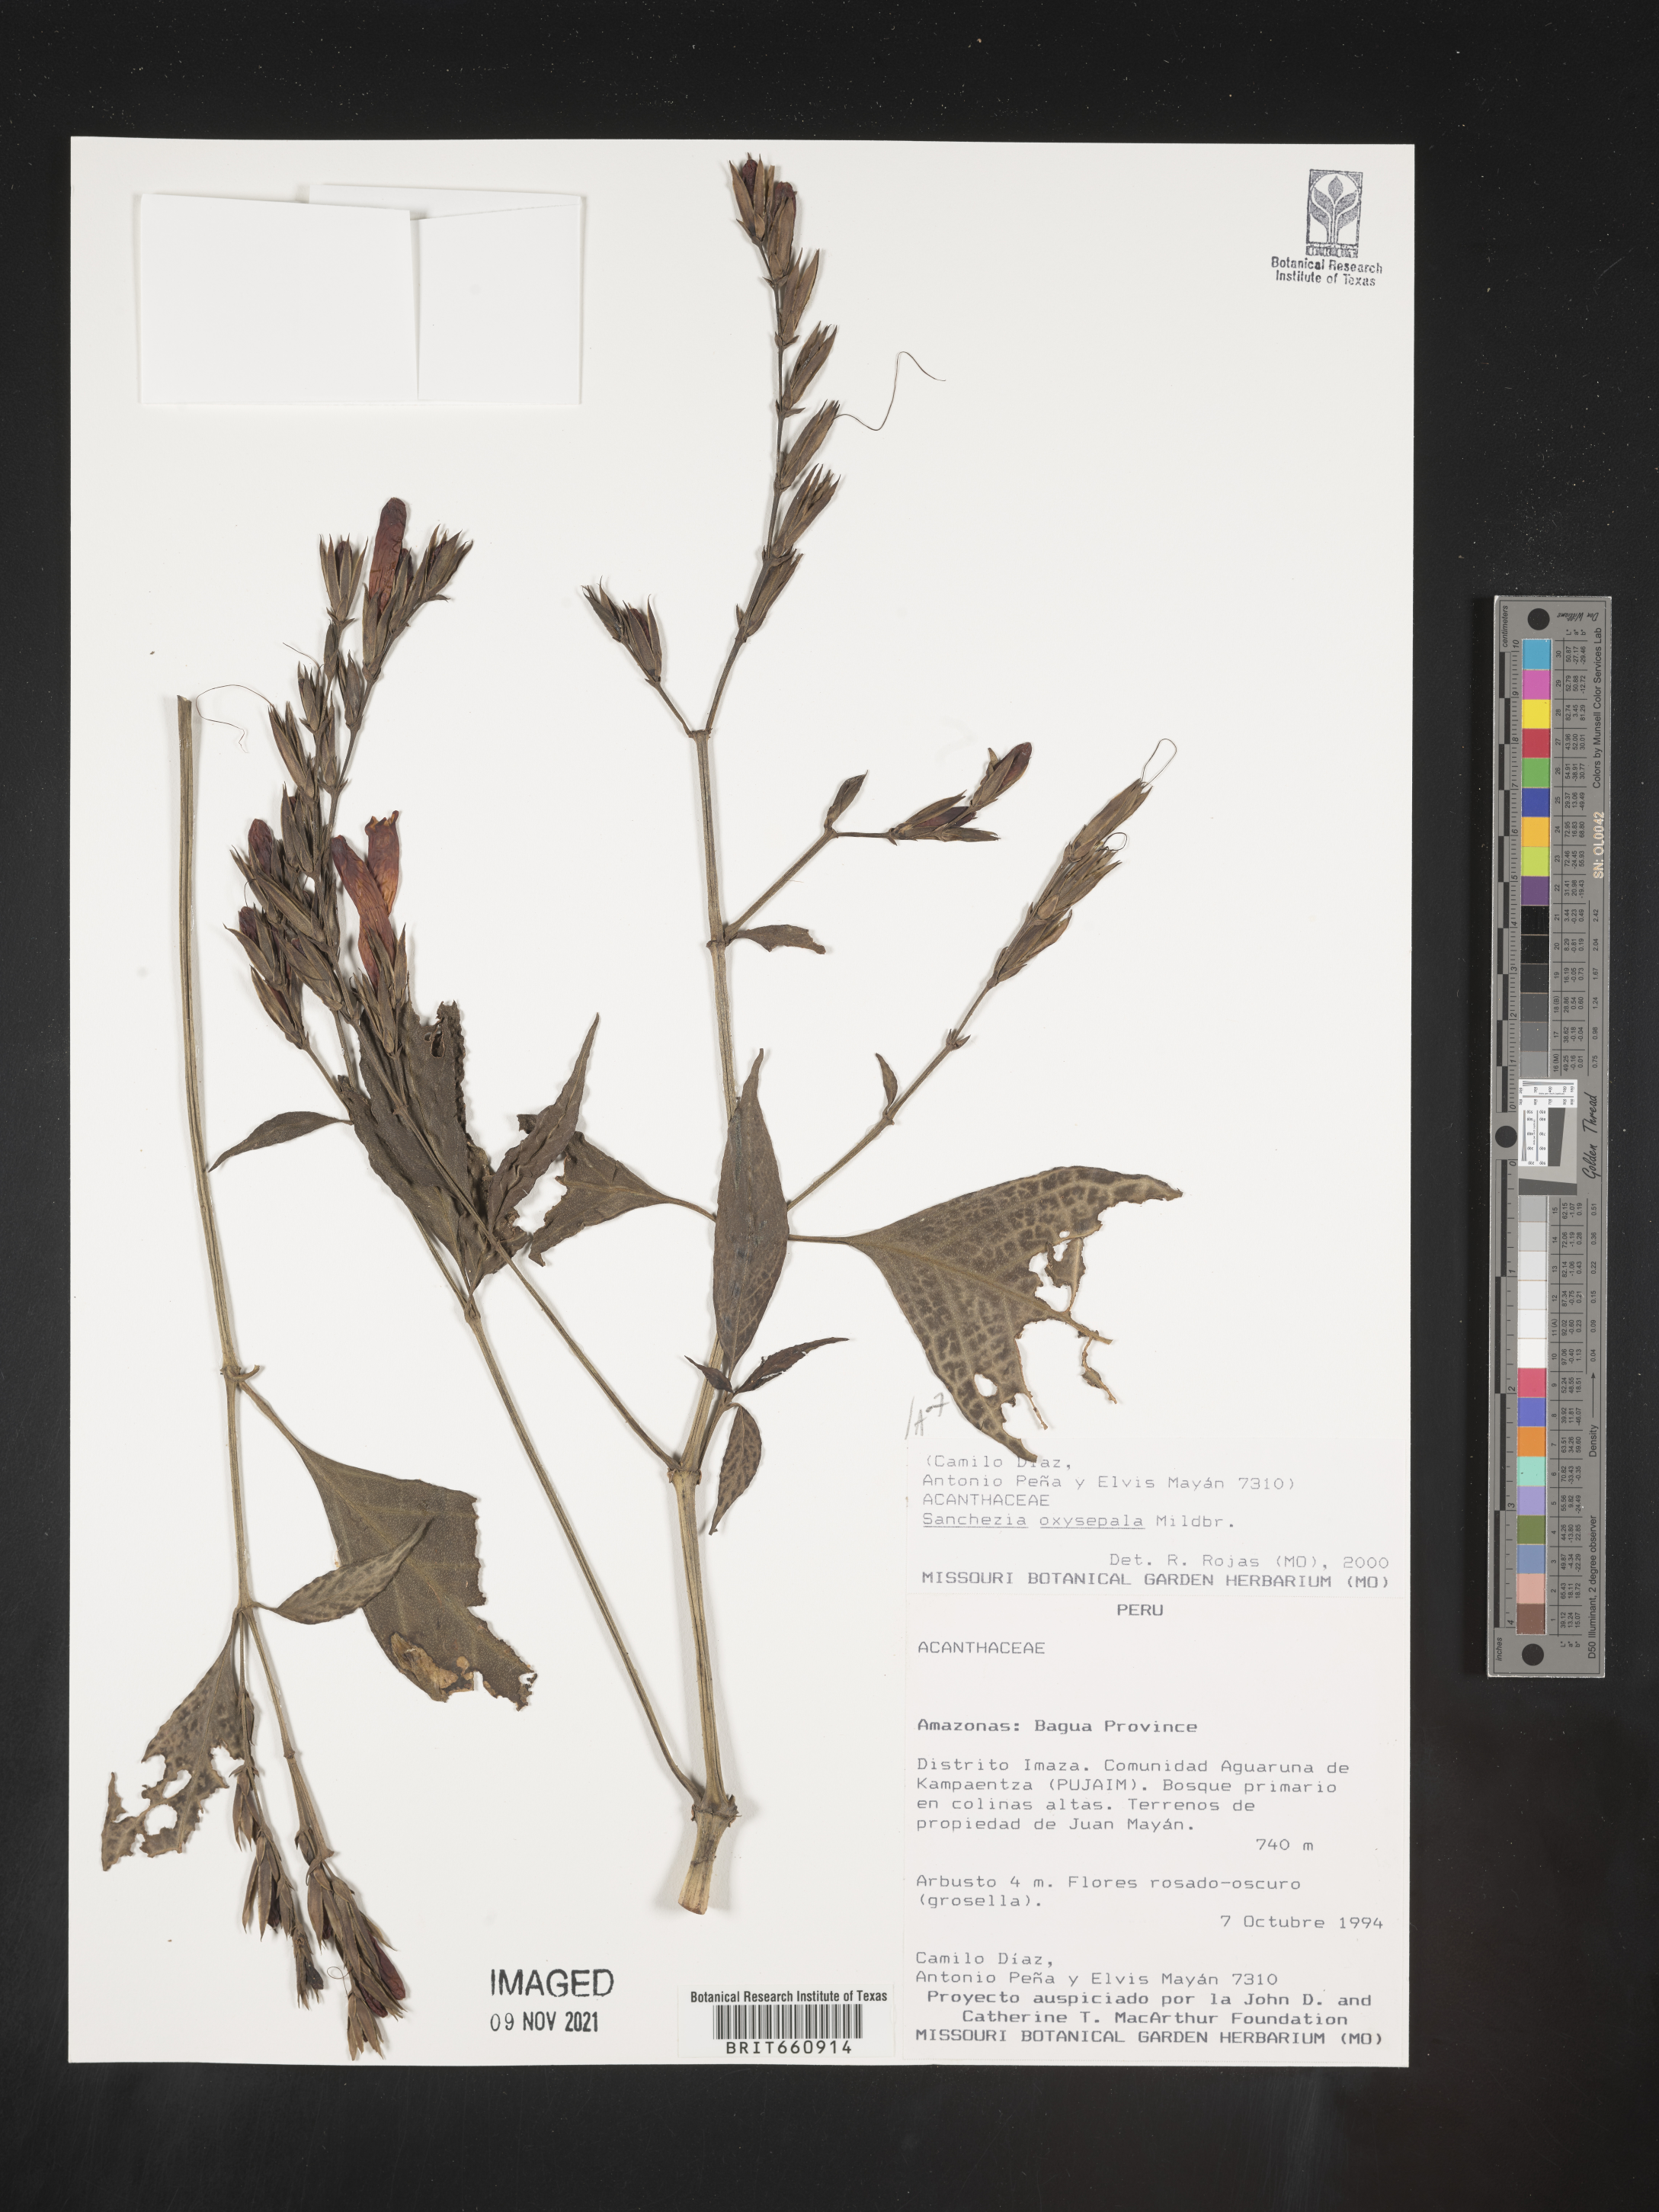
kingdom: Plantae
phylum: Tracheophyta
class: Magnoliopsida
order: Lamiales
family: Acanthaceae
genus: Sanchezia
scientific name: Sanchezia
